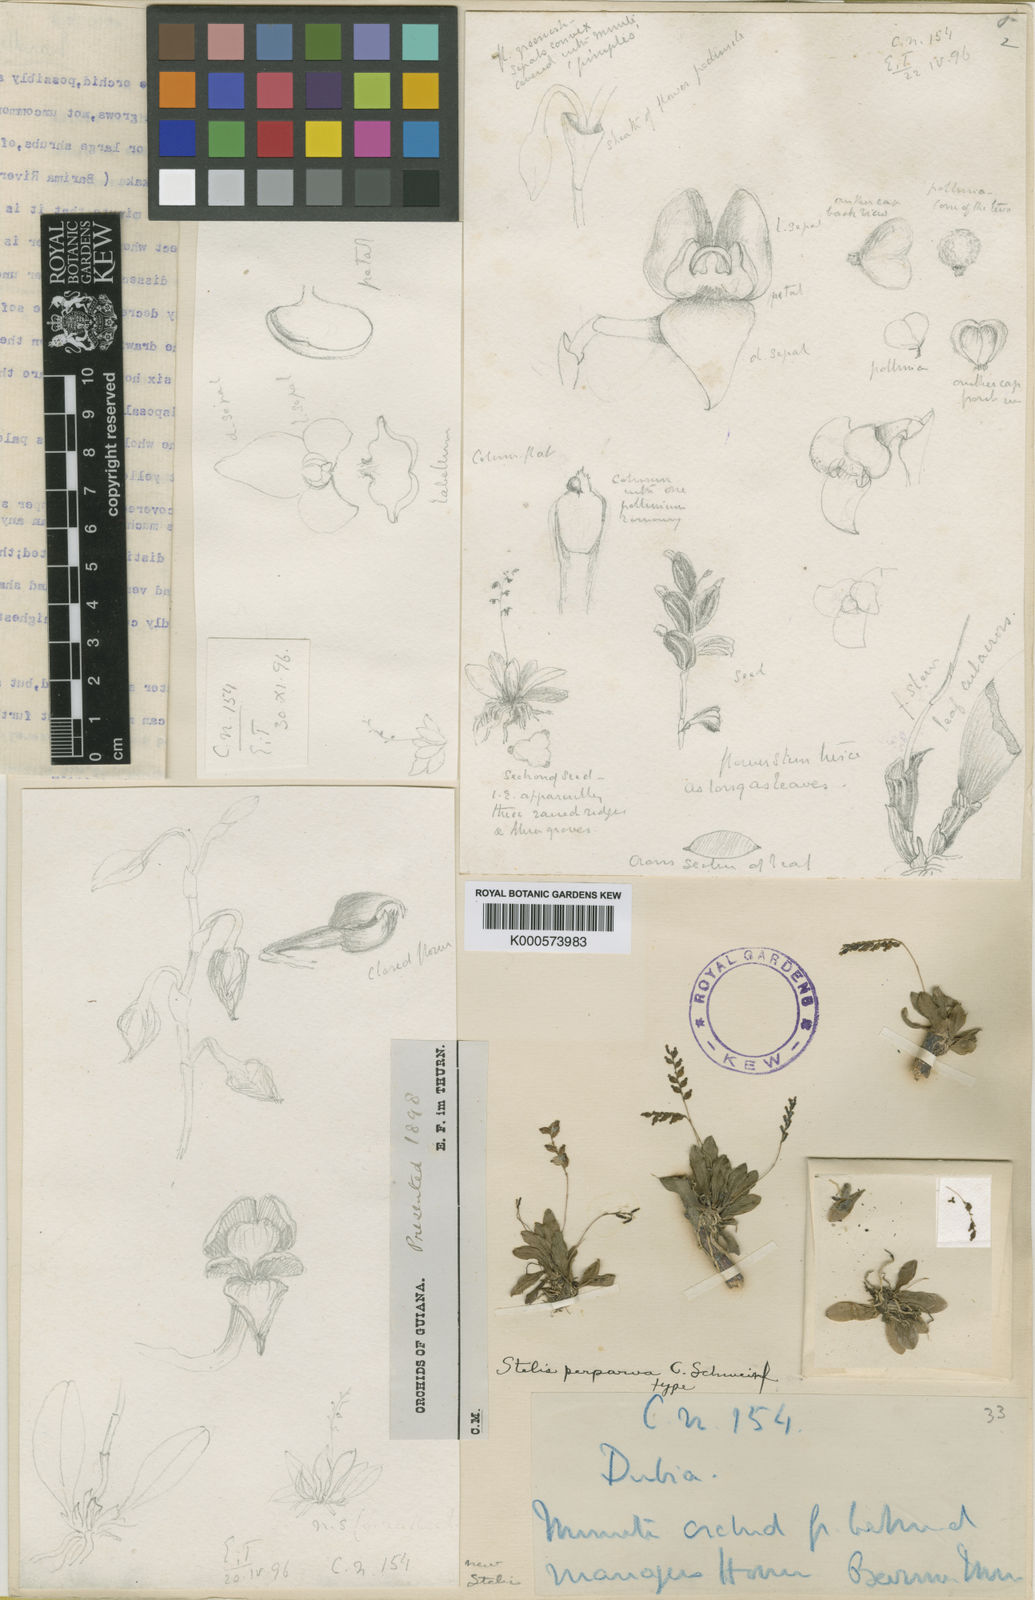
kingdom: Plantae
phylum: Tracheophyta
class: Liliopsida
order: Asparagales
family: Orchidaceae
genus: Stelis
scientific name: Stelis perparva
